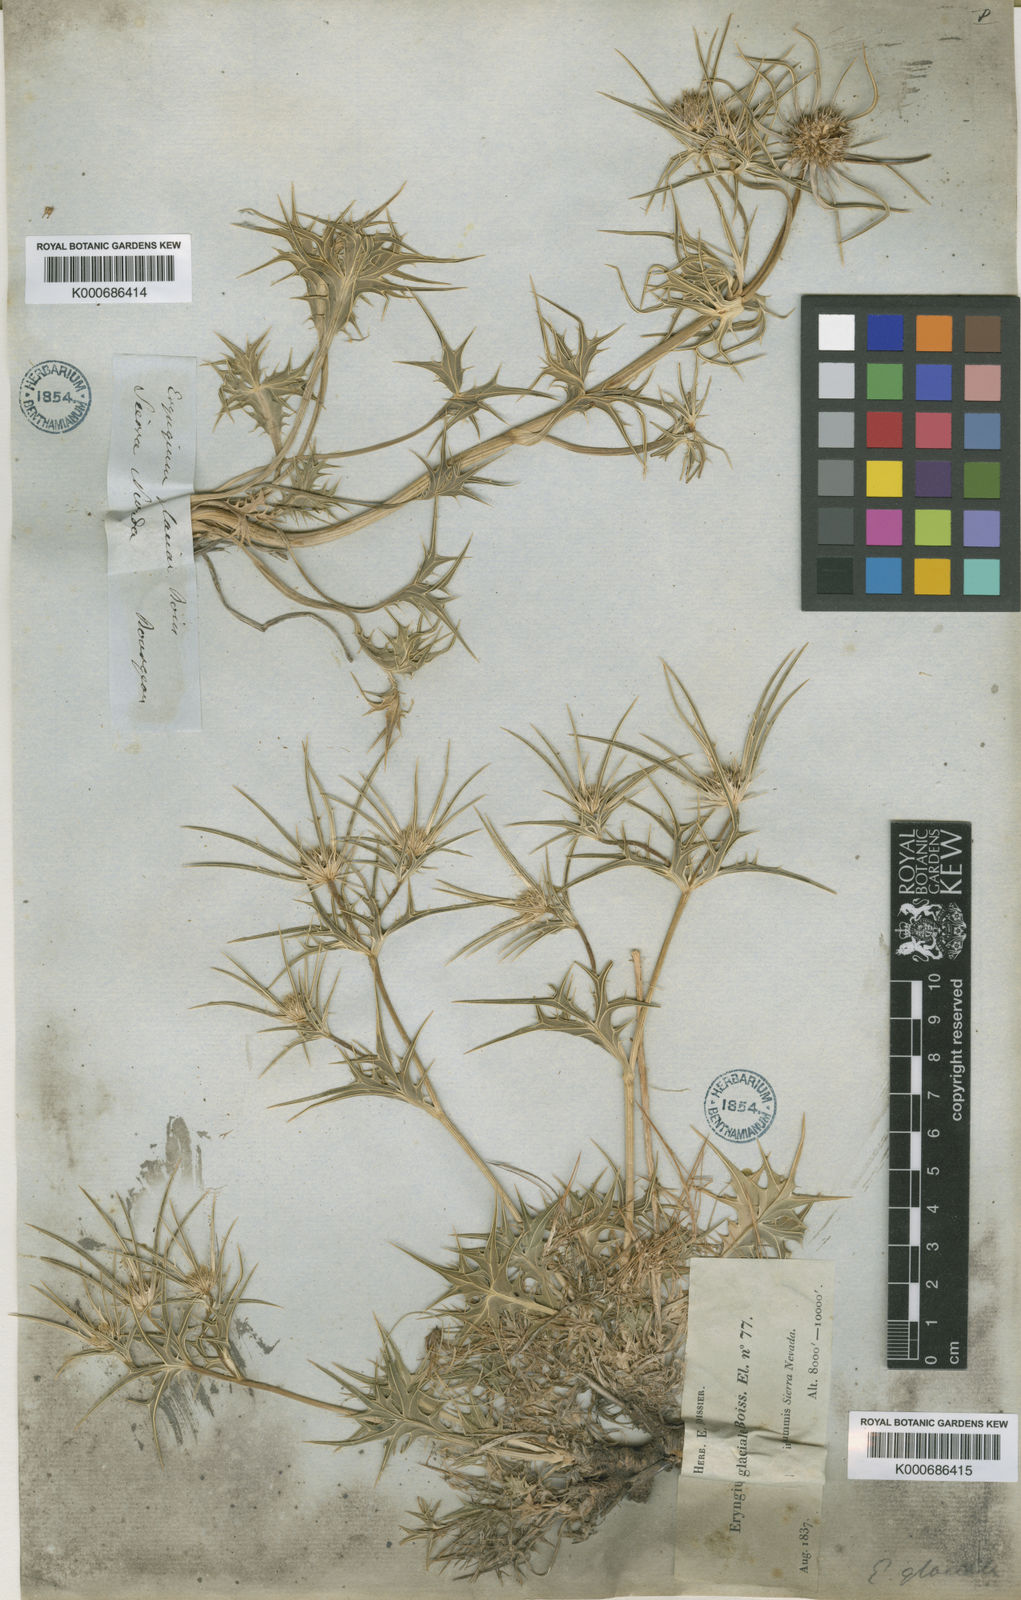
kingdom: Plantae
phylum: Tracheophyta
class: Magnoliopsida
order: Apiales
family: Apiaceae
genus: Eryngium
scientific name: Eryngium glaciale
